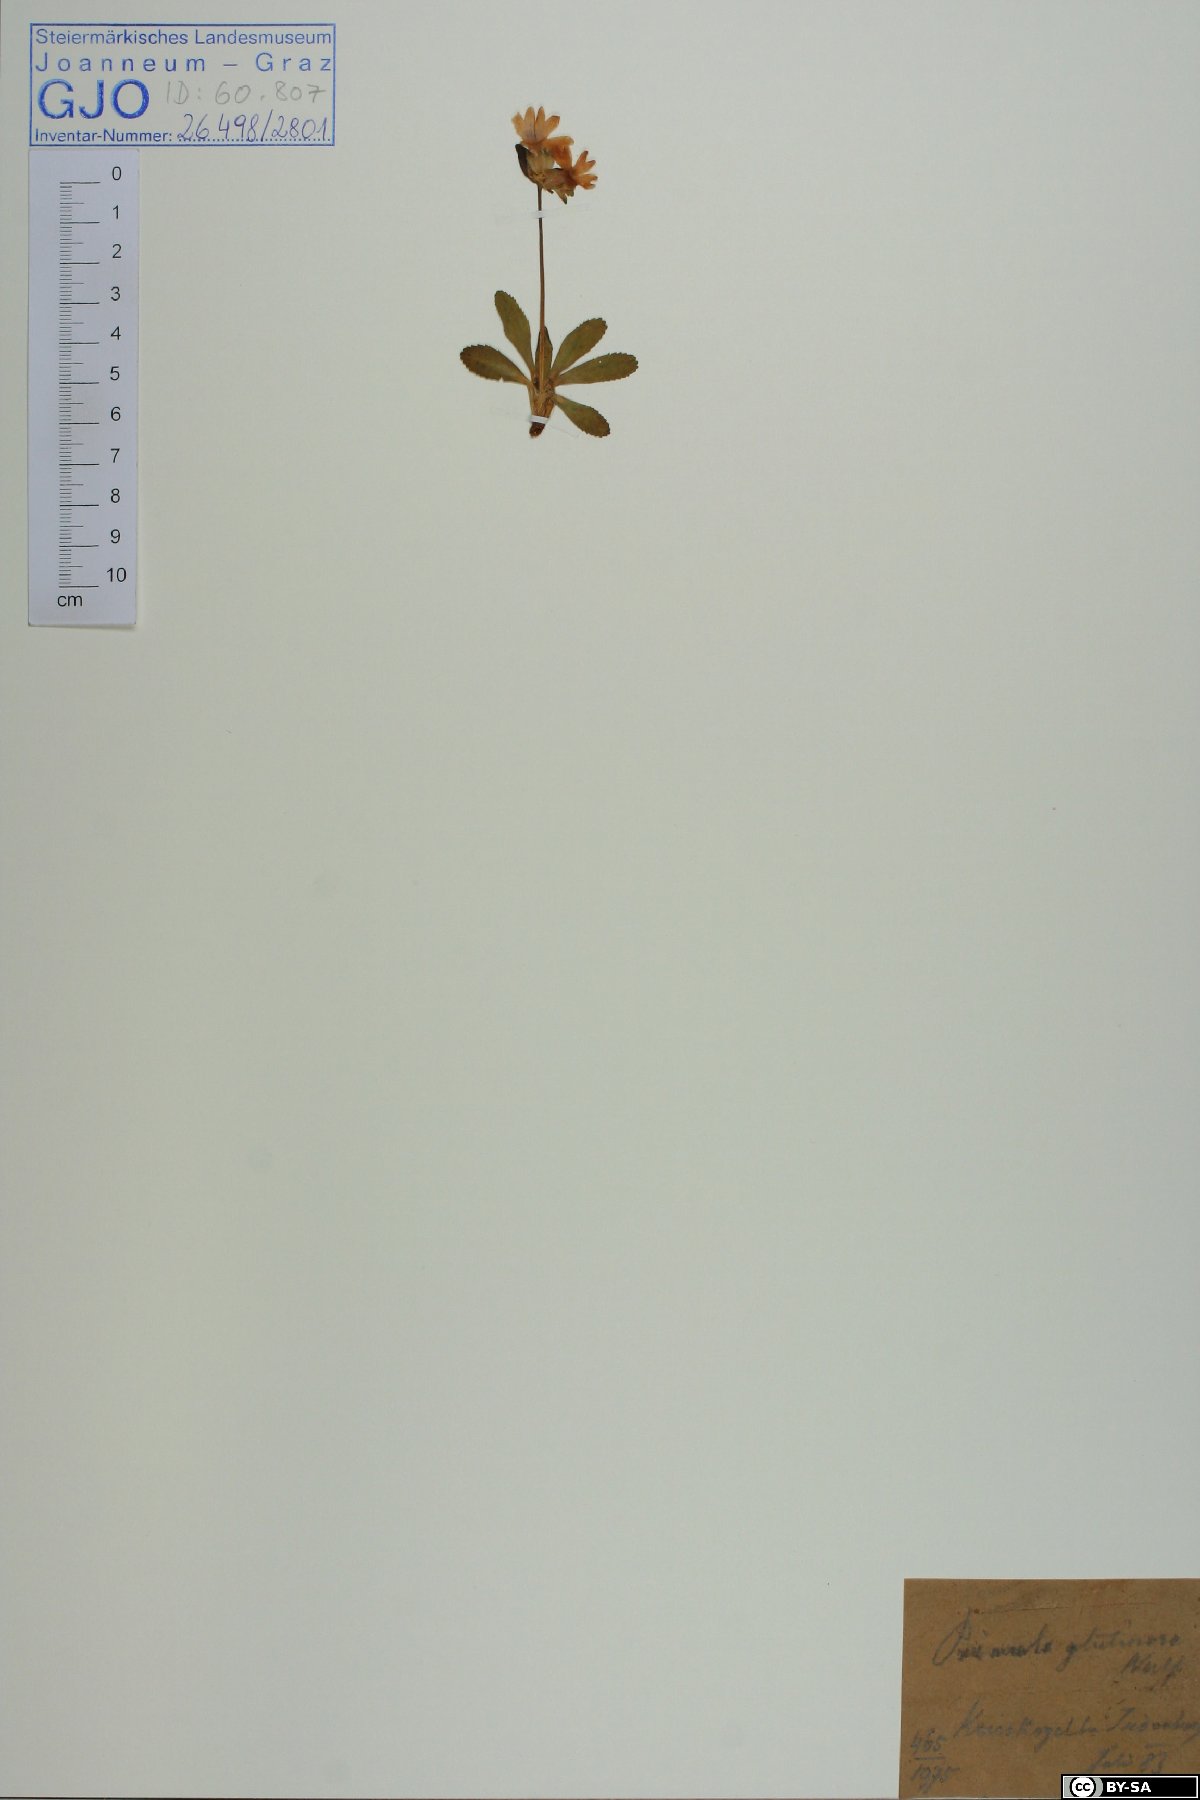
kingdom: Plantae
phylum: Tracheophyta
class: Magnoliopsida
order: Ericales
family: Primulaceae
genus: Primula
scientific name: Primula glutinosa
